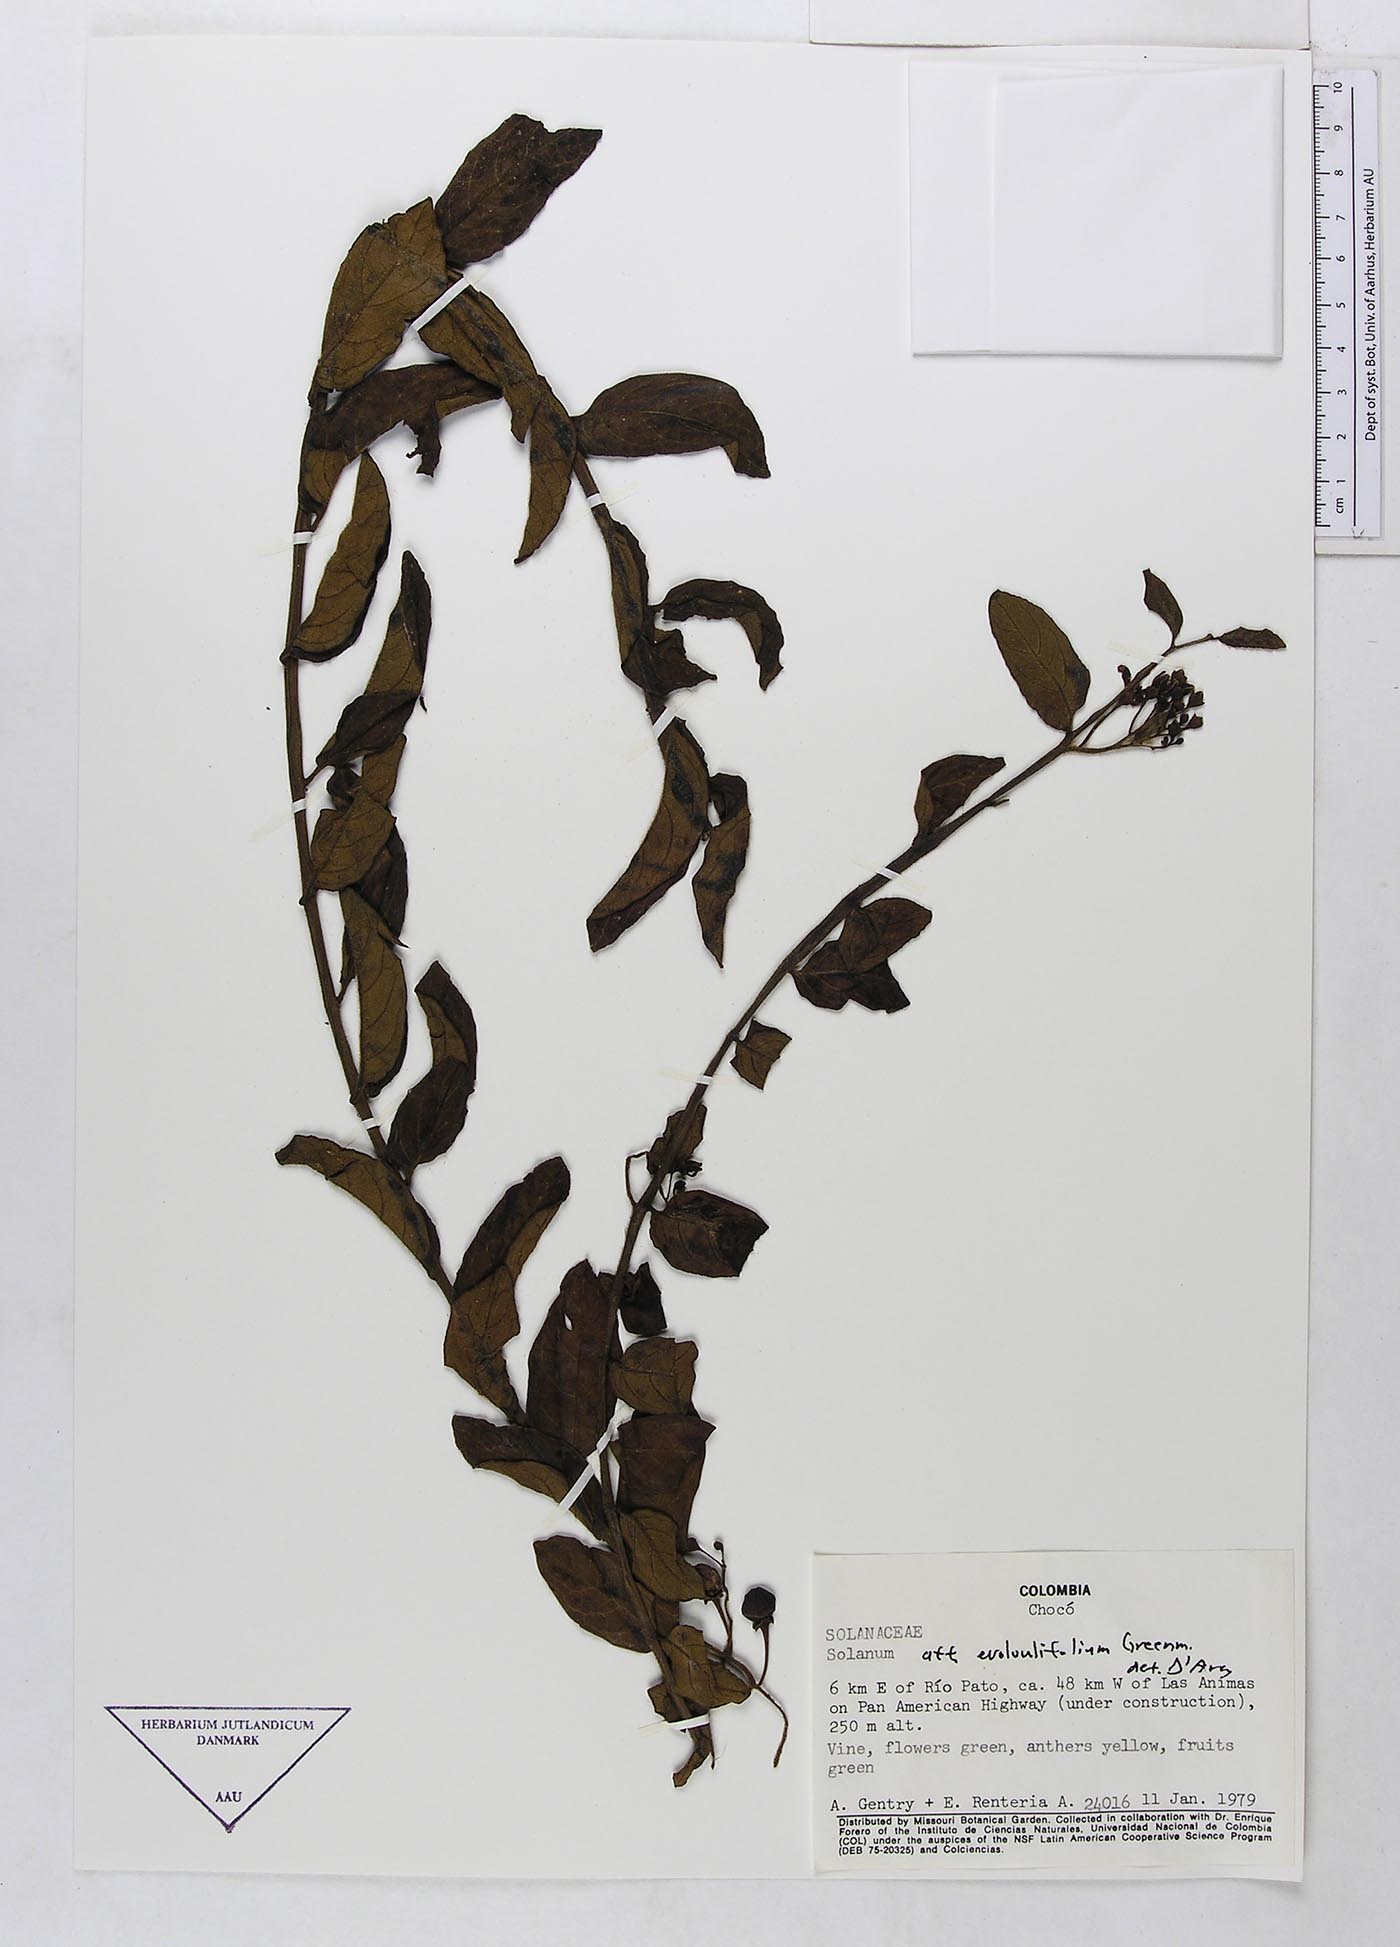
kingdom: Plantae
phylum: Tracheophyta
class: Magnoliopsida
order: Solanales
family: Solanaceae
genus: Solanum
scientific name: Solanum evolvulifolium
